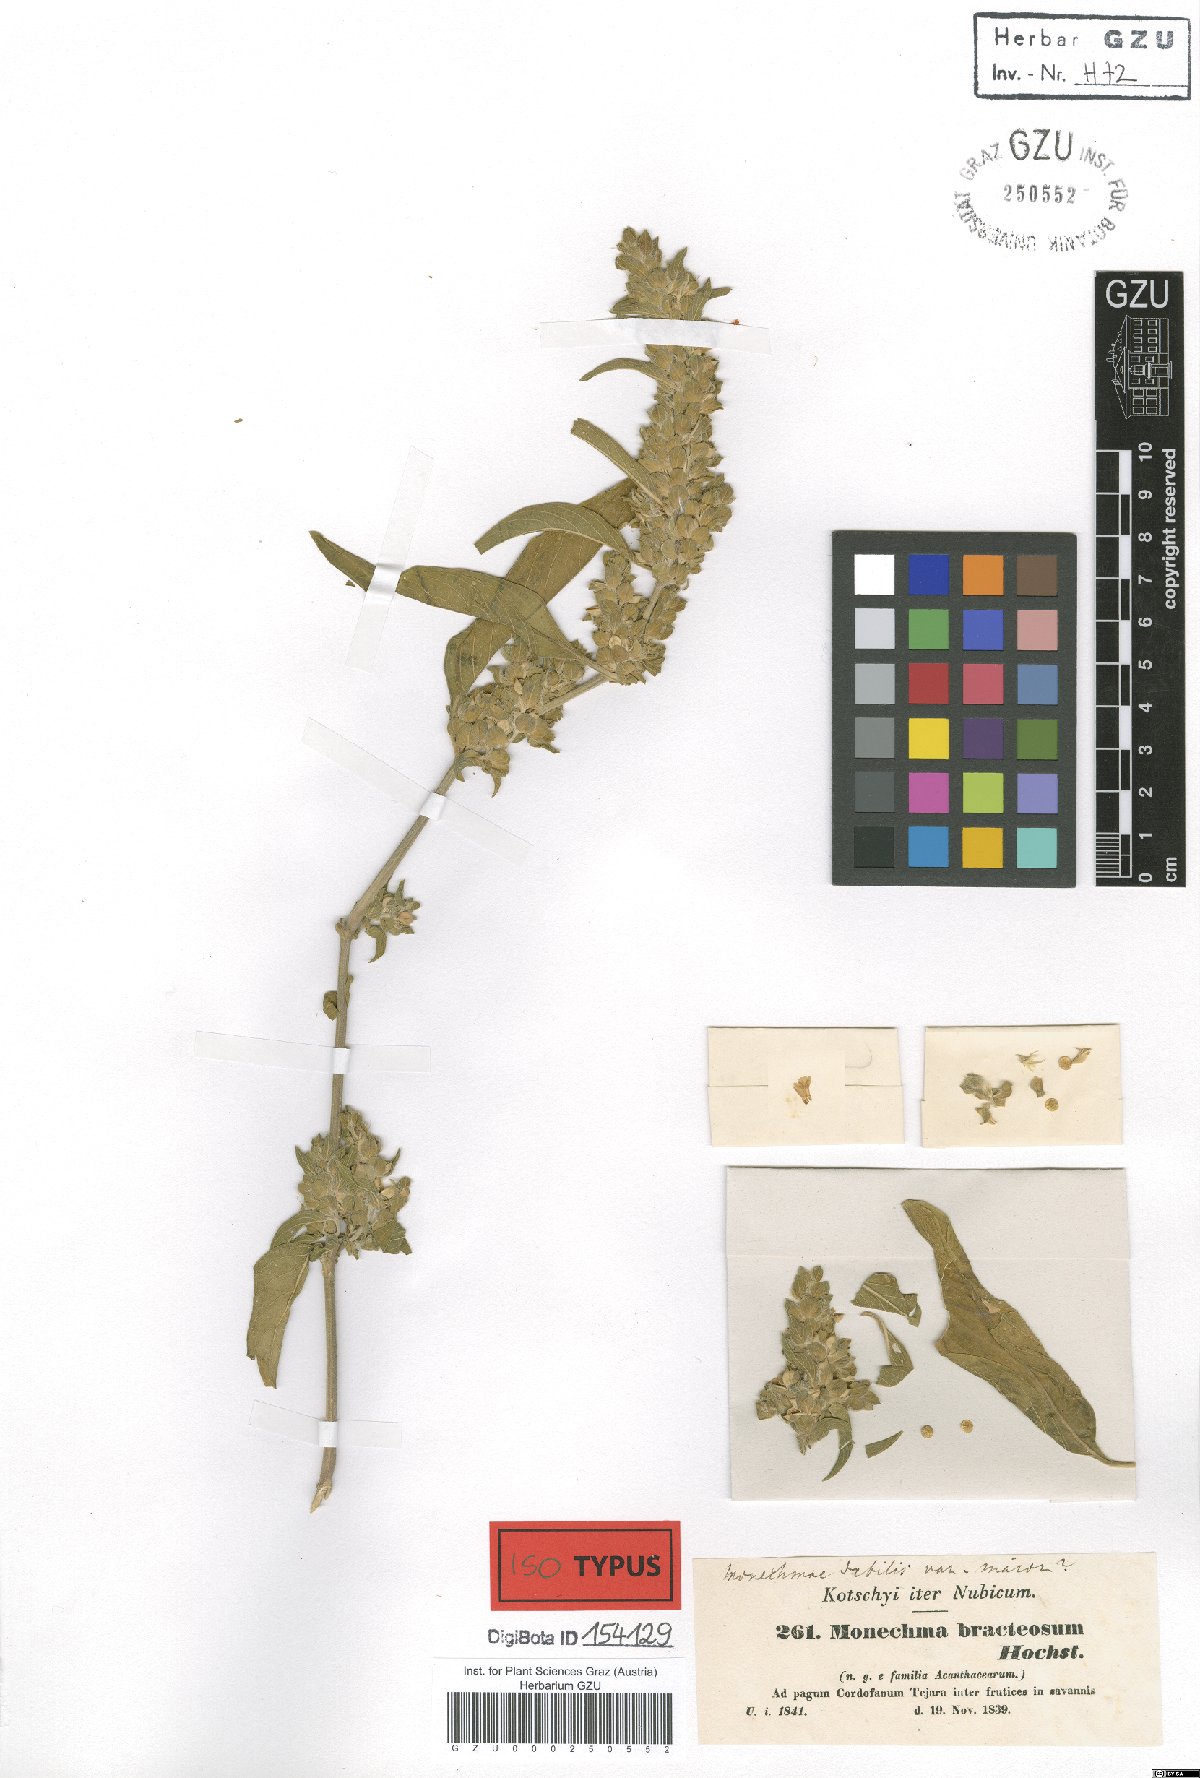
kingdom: Plantae
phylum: Tracheophyta
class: Magnoliopsida
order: Lamiales
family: Acanthaceae
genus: Monechma
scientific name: Monechma bracteatum
